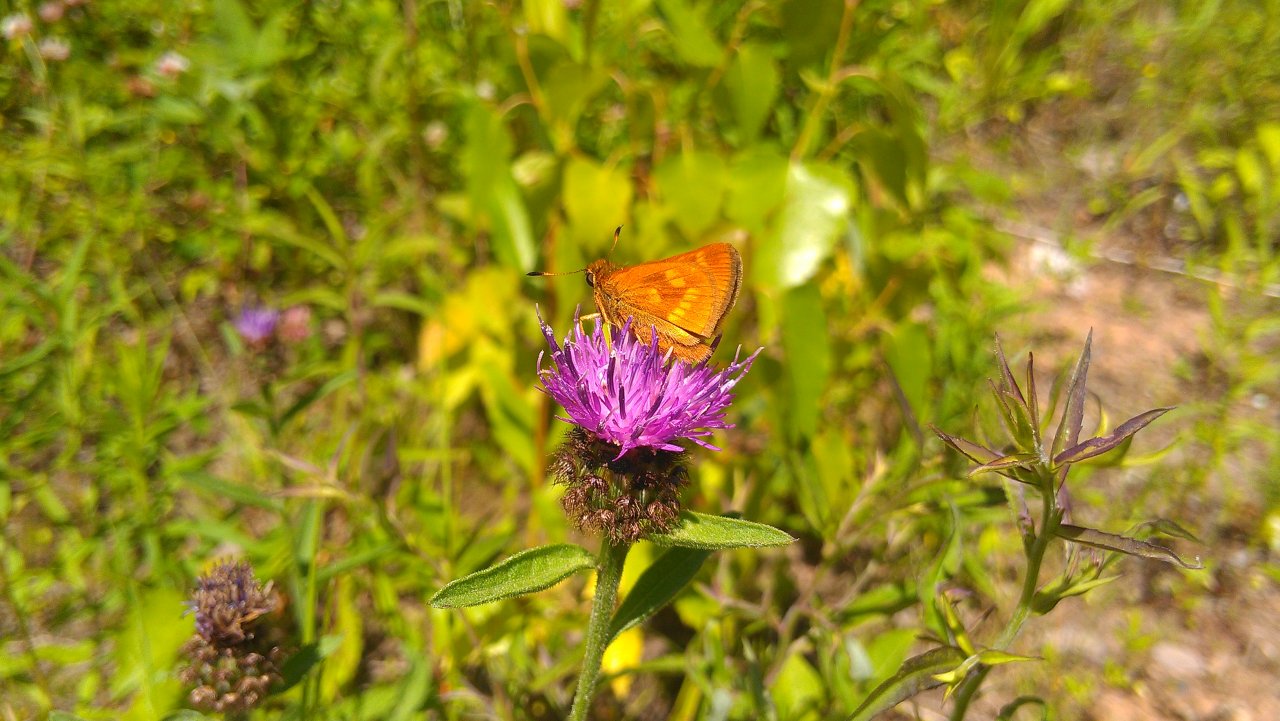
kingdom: Animalia
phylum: Arthropoda
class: Insecta
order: Lepidoptera
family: Hesperiidae
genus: Polites
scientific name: Polites
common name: Long Dash Skipper
